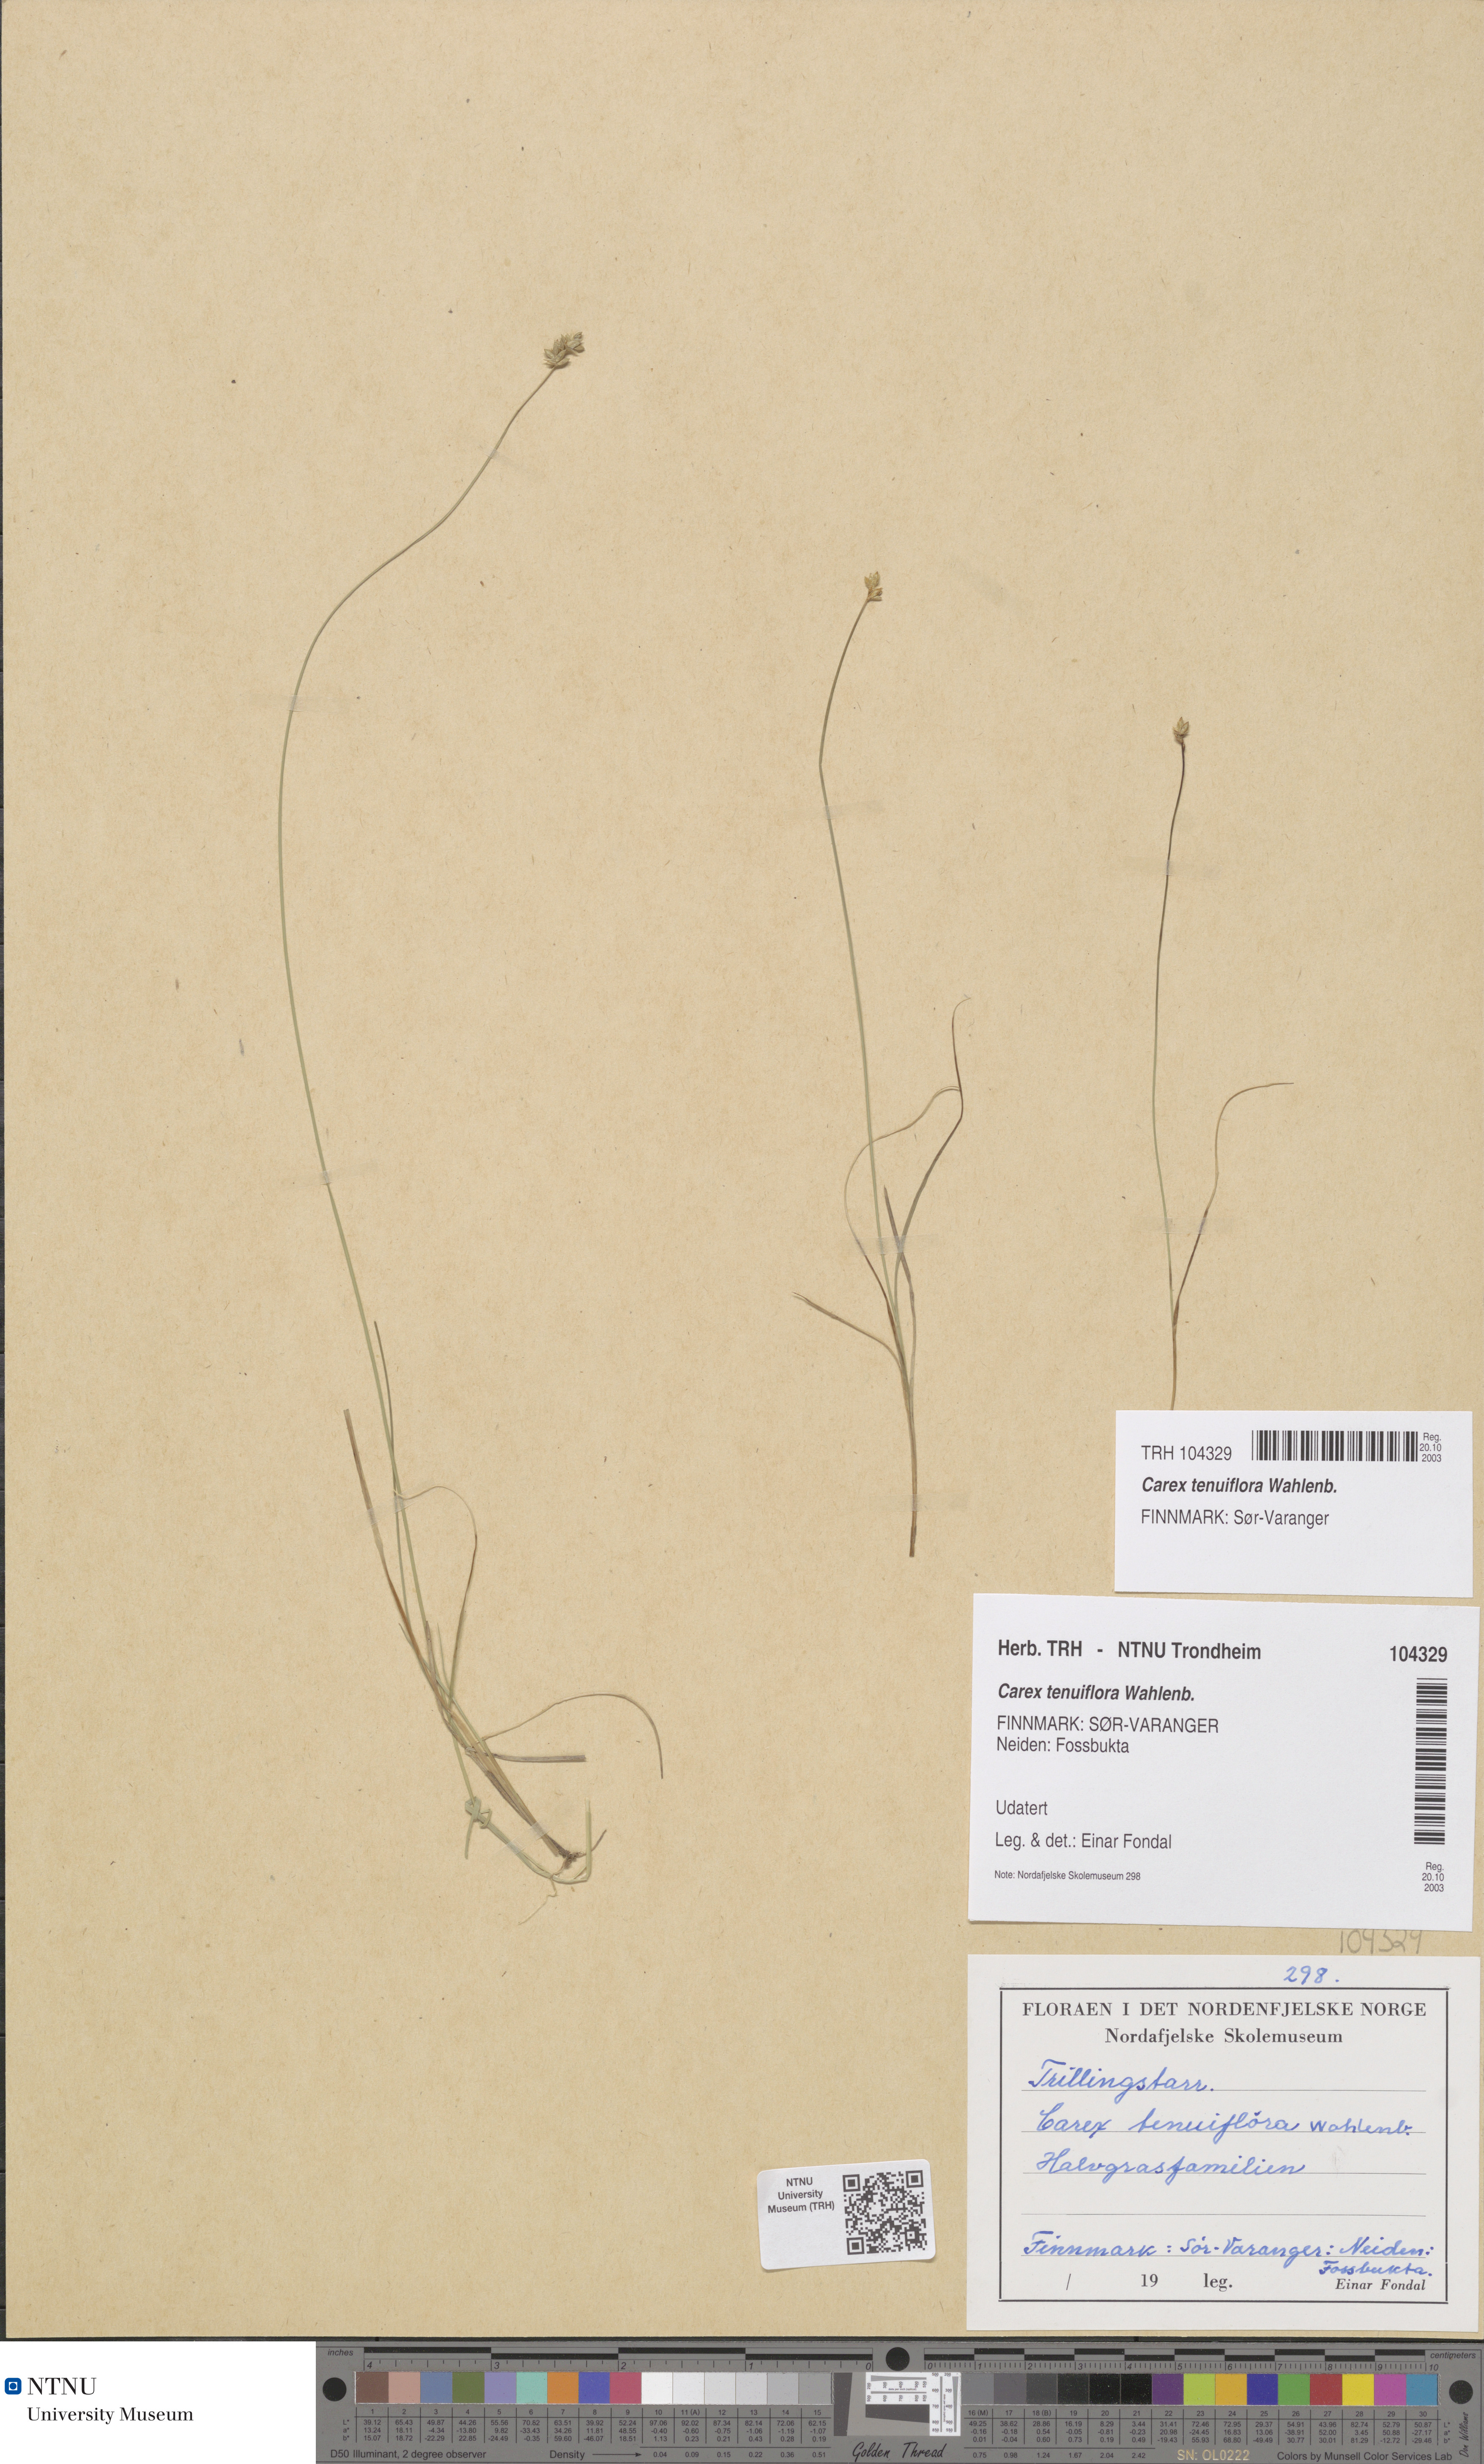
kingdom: Plantae
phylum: Tracheophyta
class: Liliopsida
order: Poales
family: Cyperaceae
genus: Carex
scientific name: Carex tenuiflora
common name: Sparse-flowered sedge
